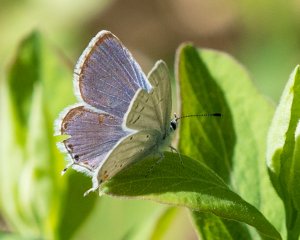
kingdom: Animalia
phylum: Arthropoda
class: Insecta
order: Lepidoptera
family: Lycaenidae
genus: Elkalyce
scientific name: Elkalyce amyntula
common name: Western Tailed-Blue
